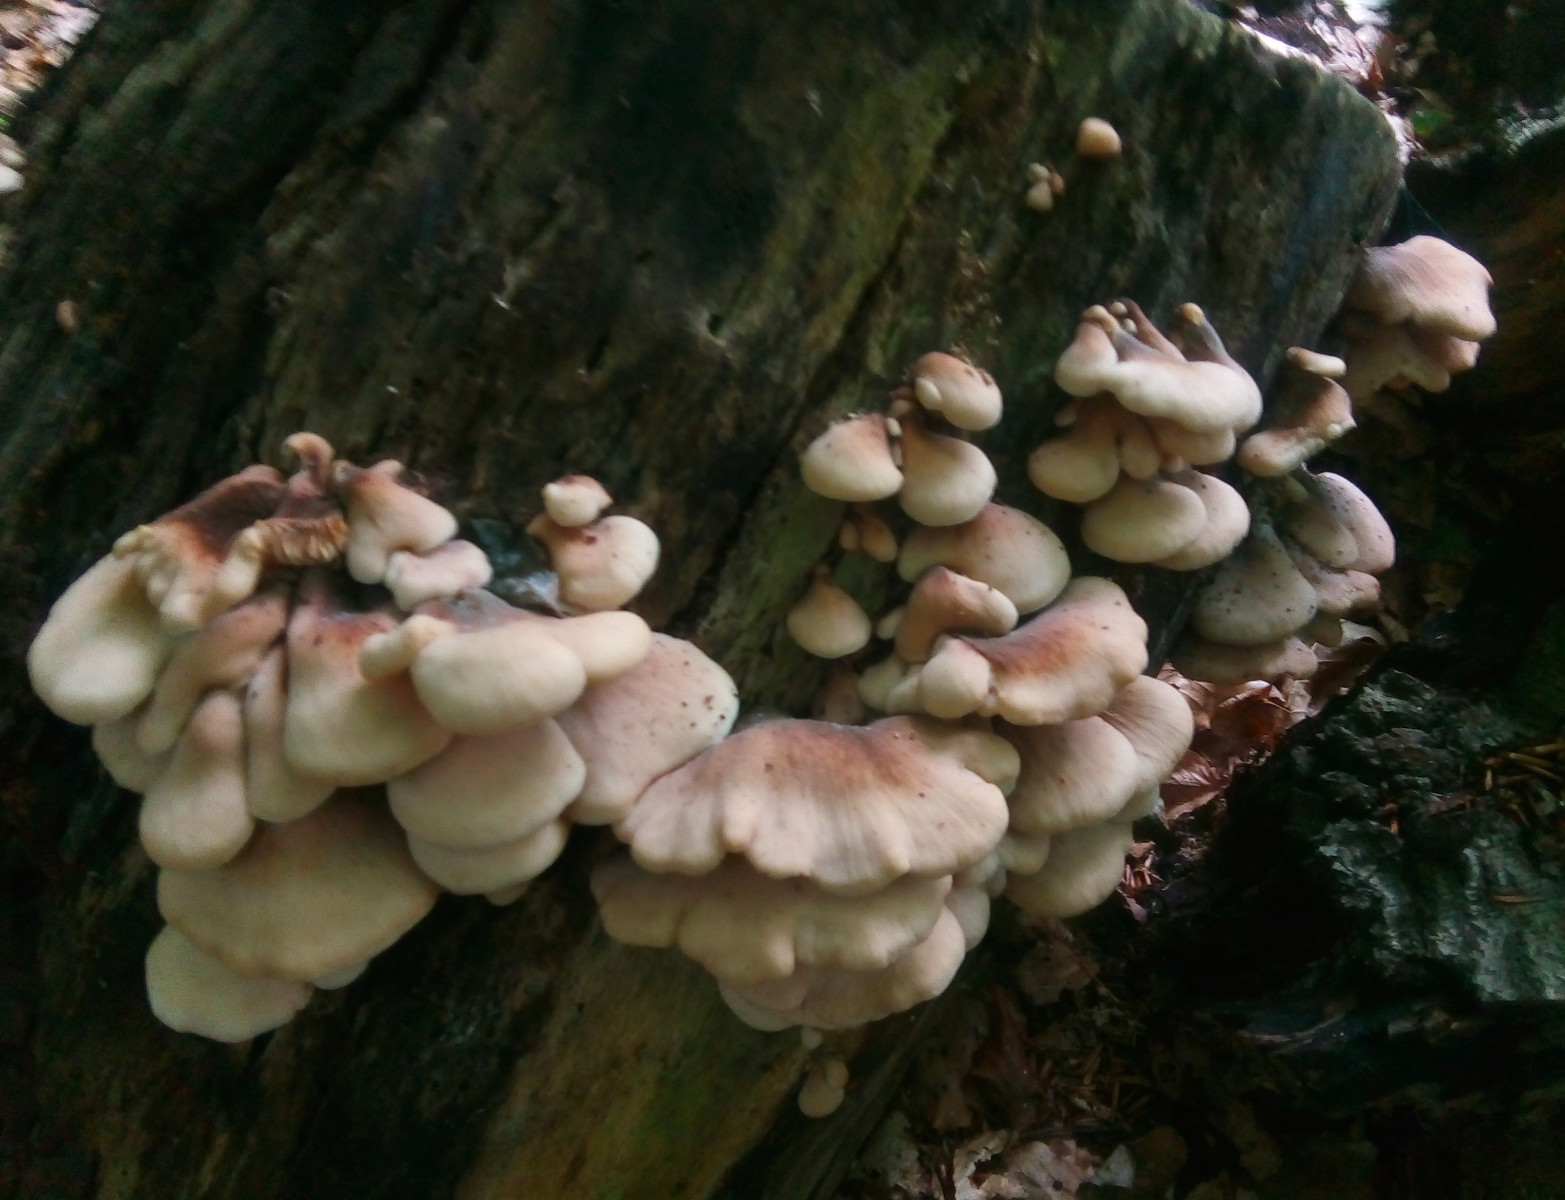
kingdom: Fungi
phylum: Basidiomycota
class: Agaricomycetes
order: Russulales
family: Auriscalpiaceae
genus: Lentinellus
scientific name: Lentinellus ursinus
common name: børstehåret savbladhat
